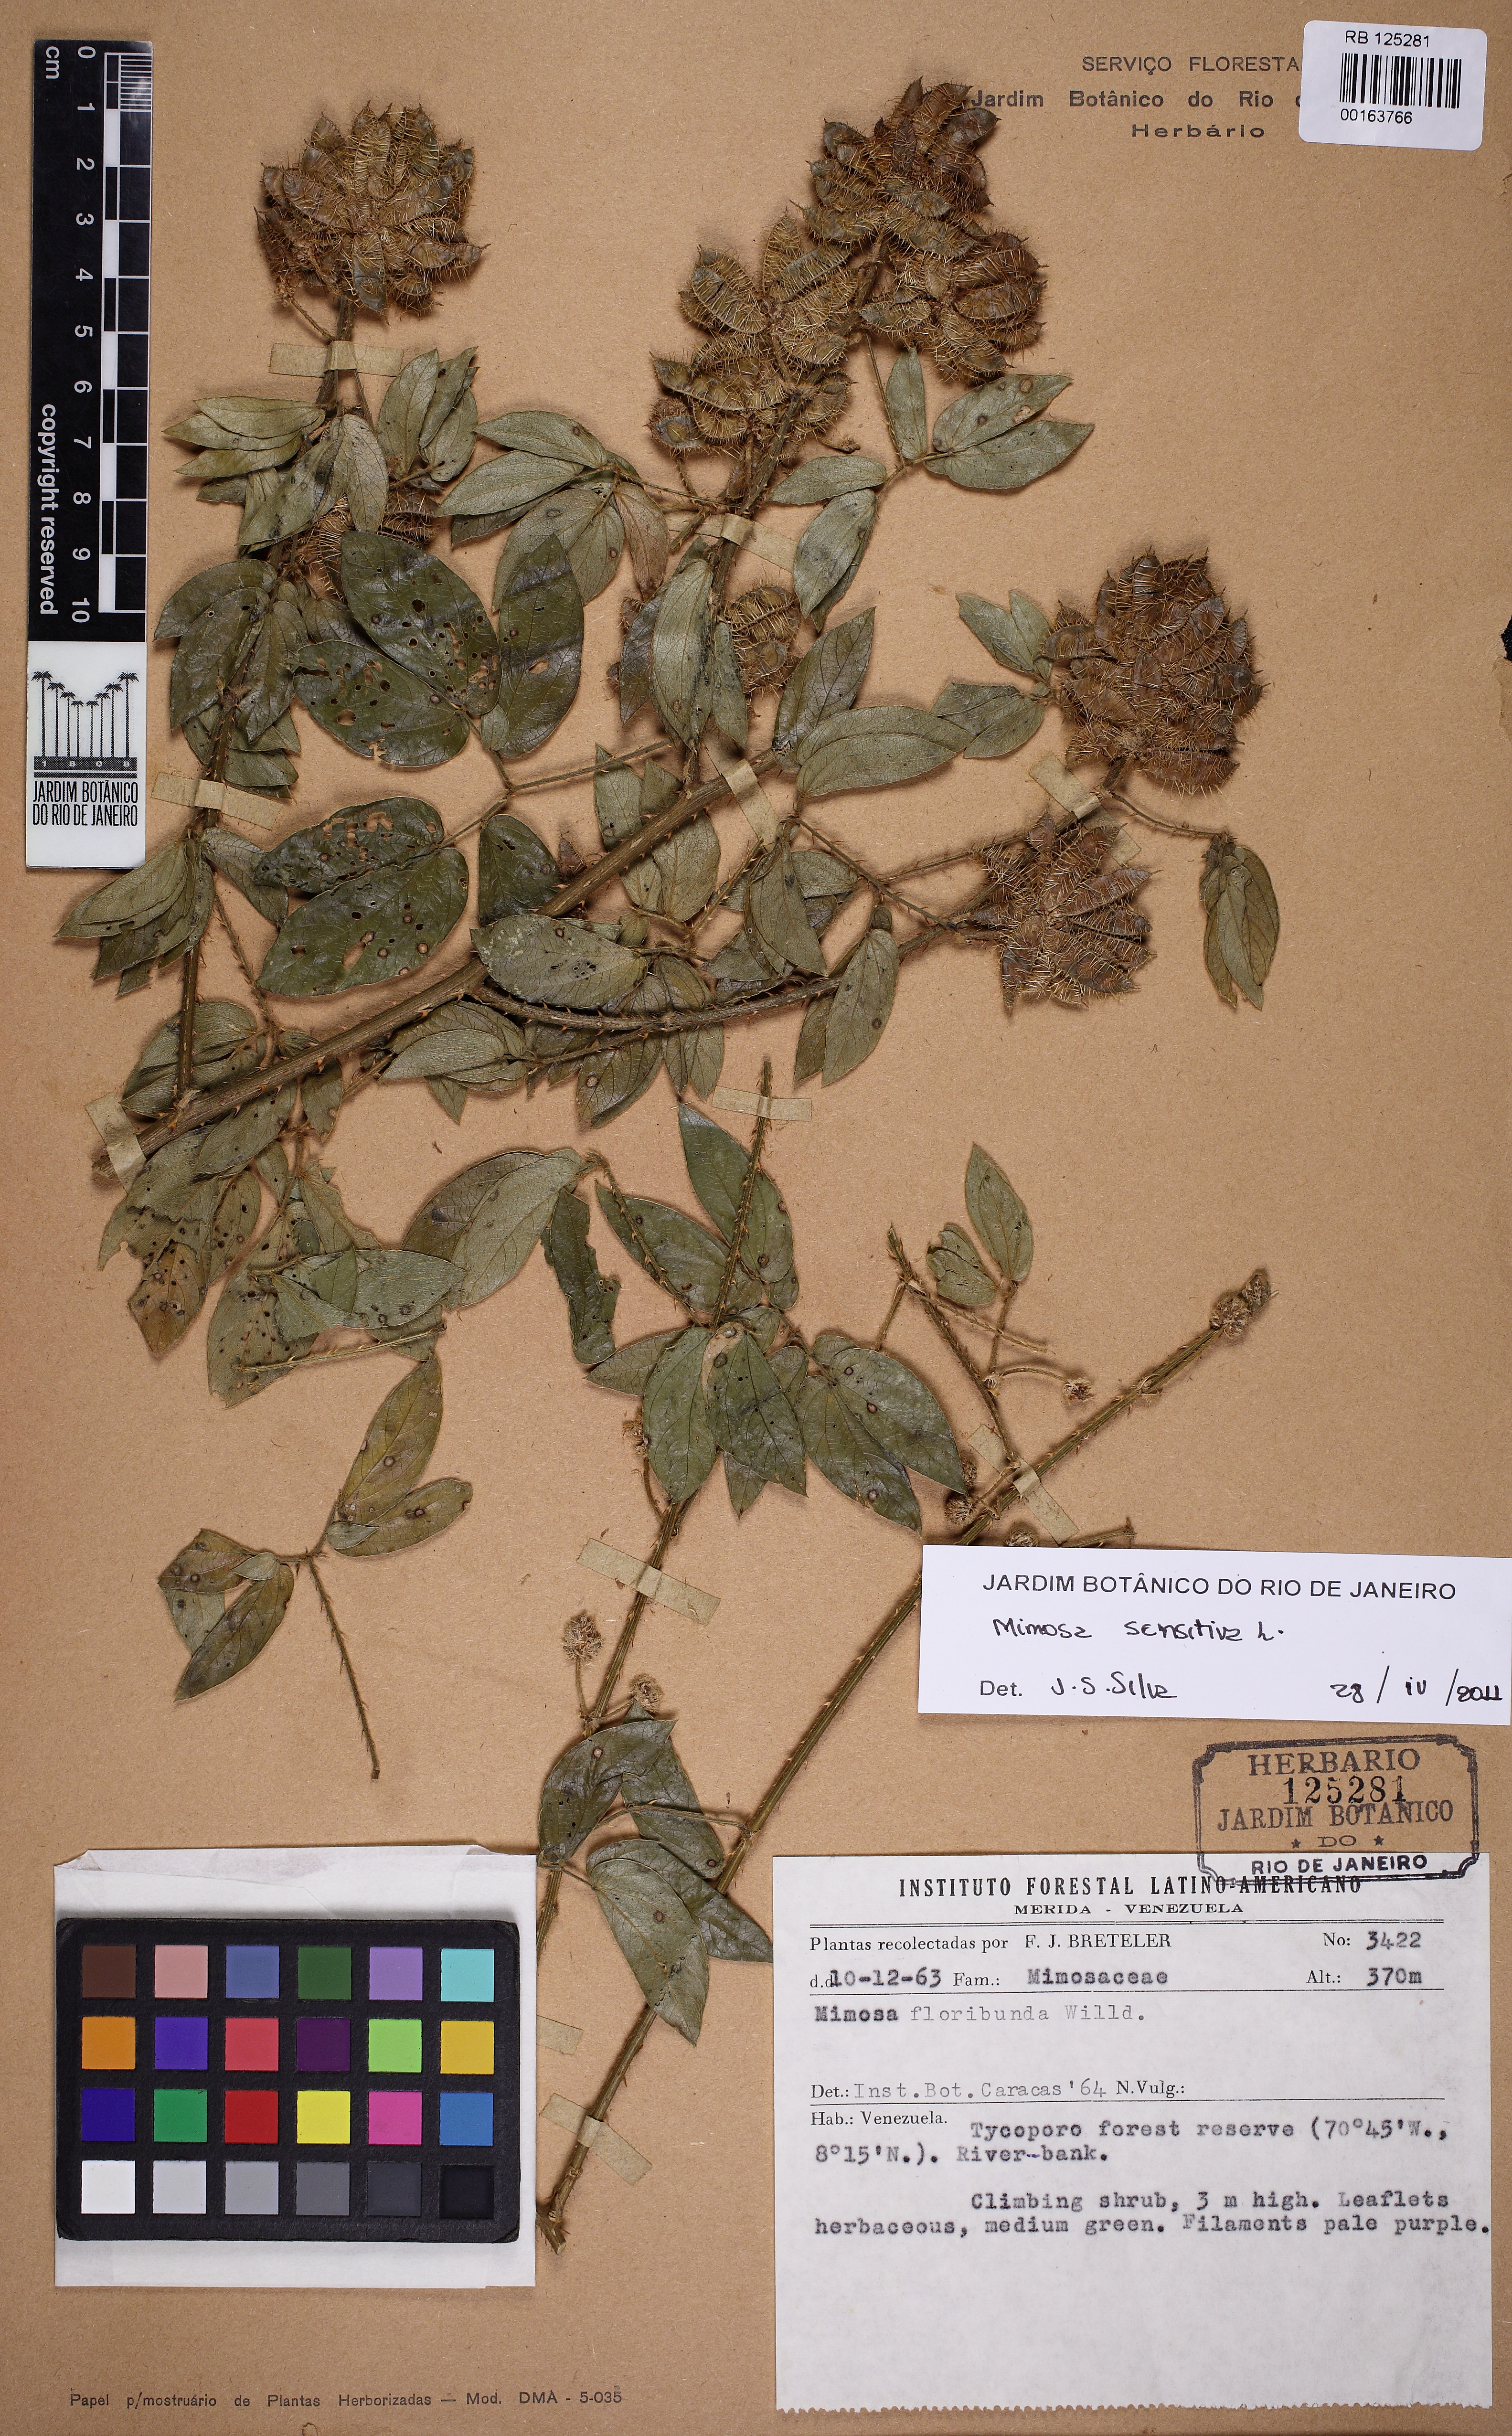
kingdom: Plantae
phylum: Tracheophyta
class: Magnoliopsida
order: Fabales
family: Fabaceae
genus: Mimosa
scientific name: Mimosa sensitiva
